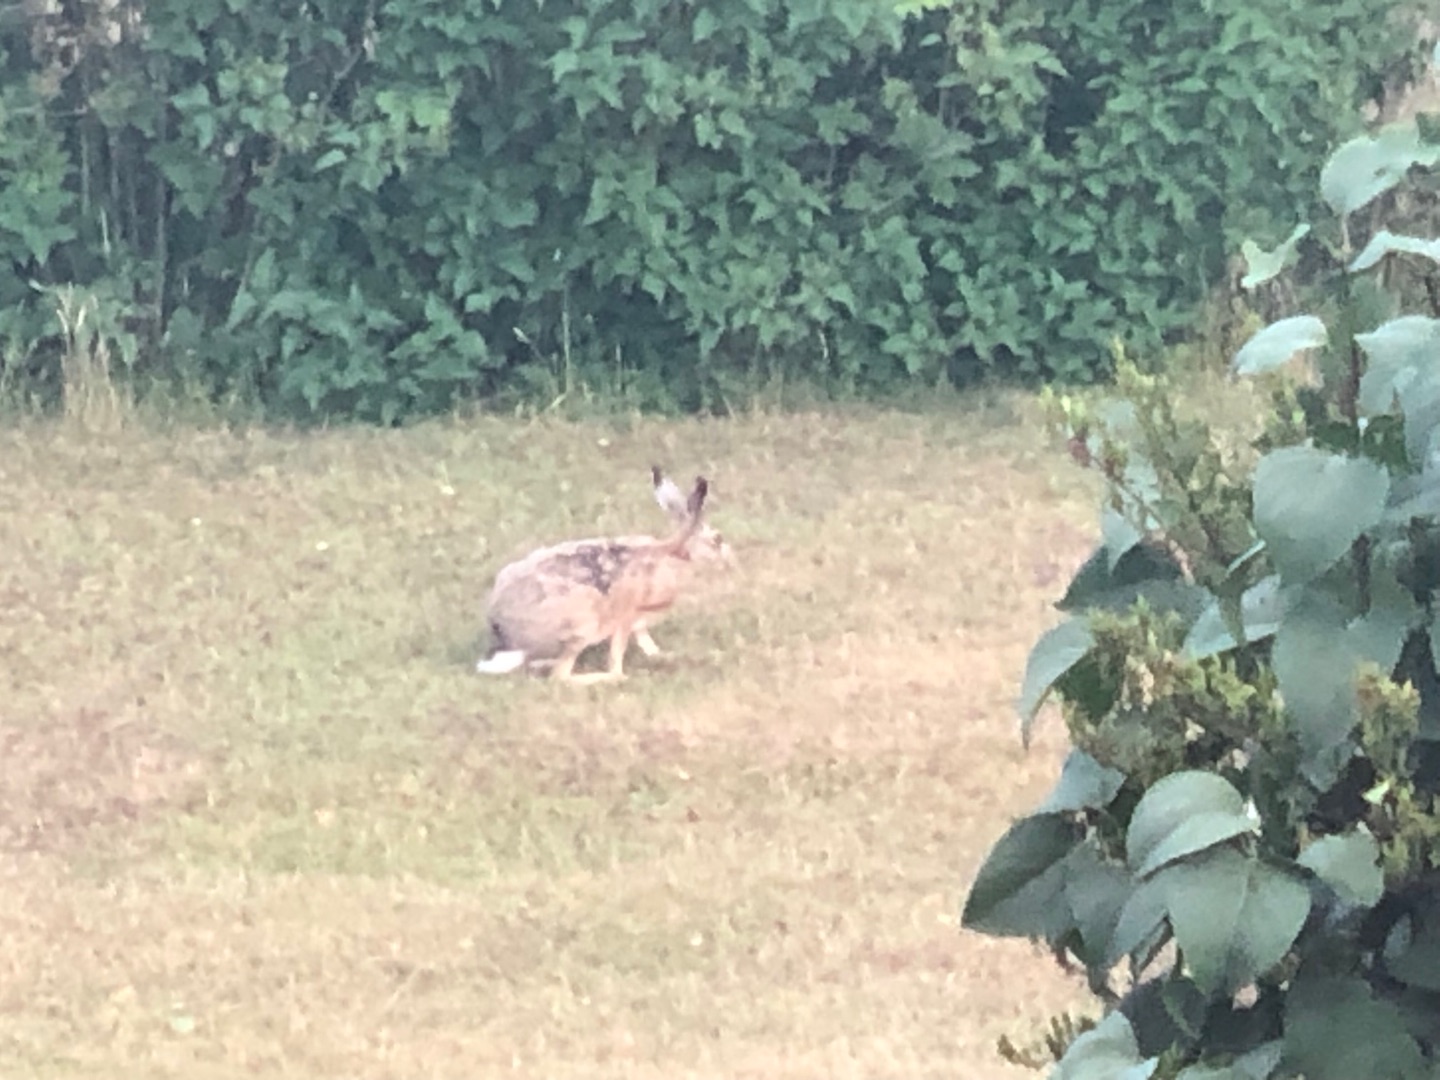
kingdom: Animalia
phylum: Chordata
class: Mammalia
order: Lagomorpha
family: Leporidae
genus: Lepus
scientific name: Lepus europaeus
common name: Hare
